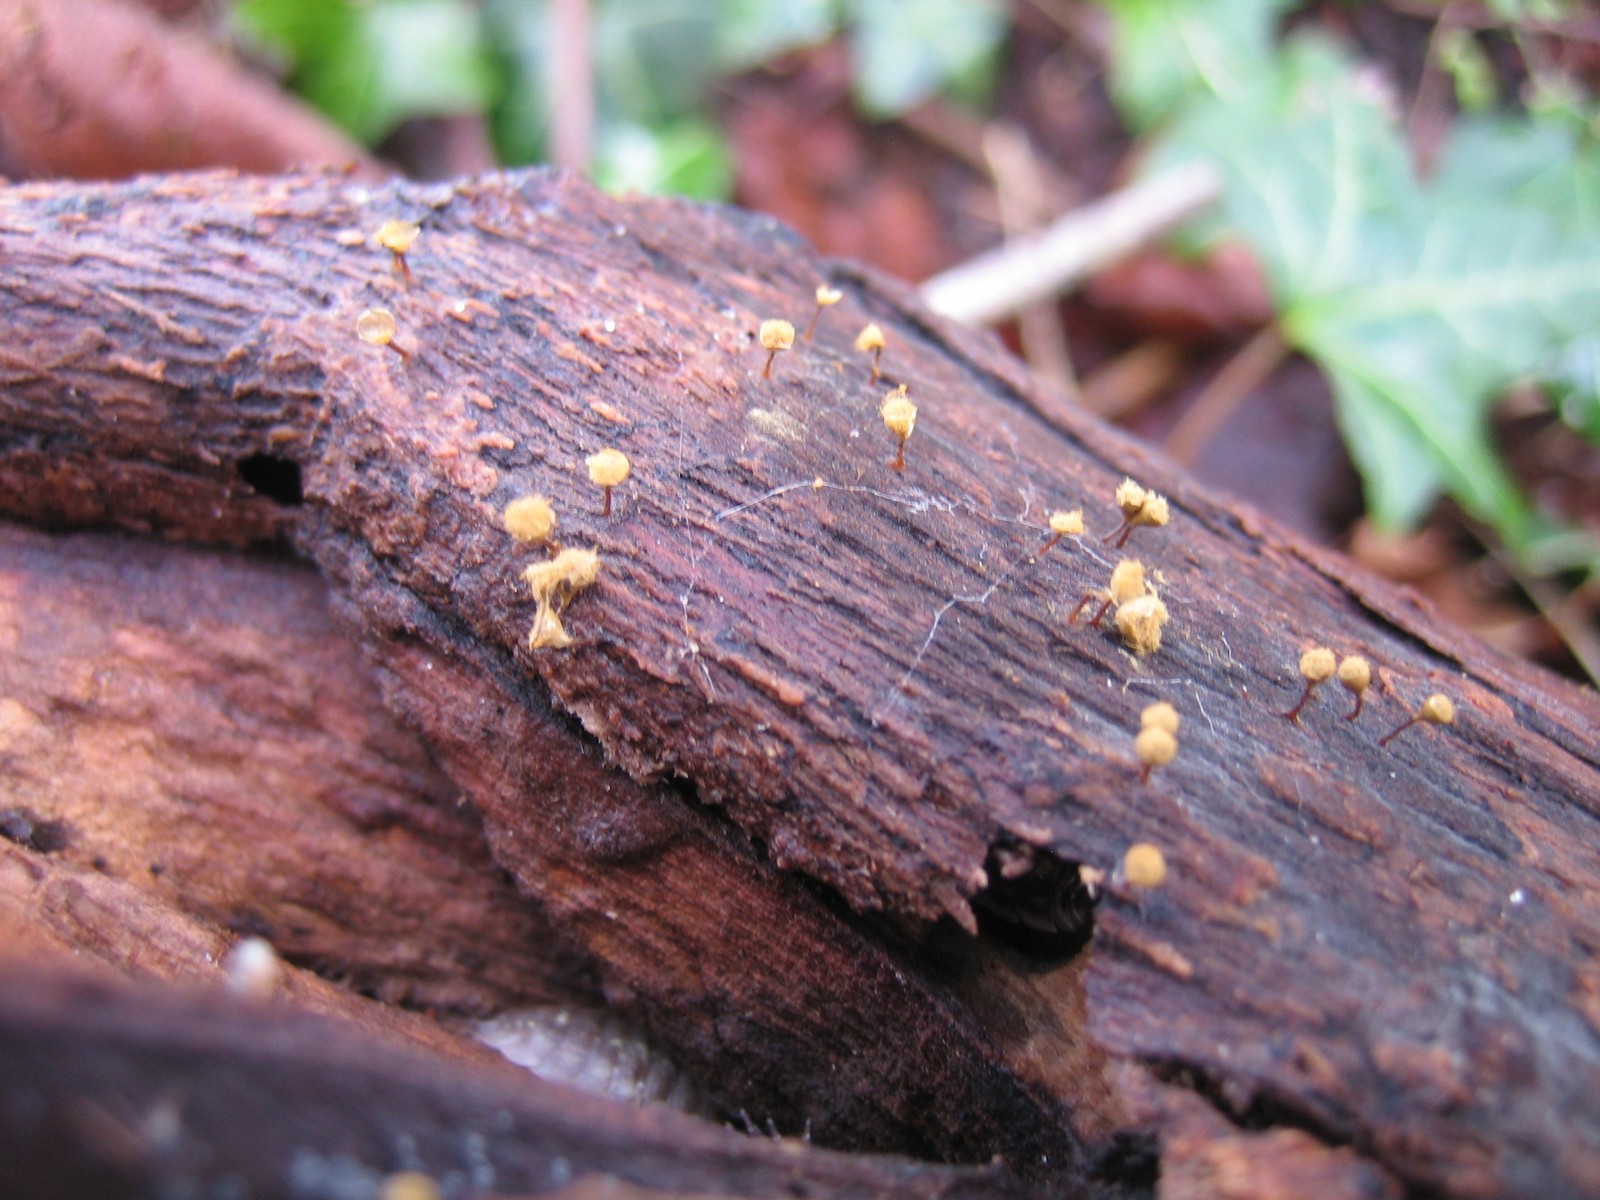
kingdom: Protozoa
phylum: Mycetozoa
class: Myxomycetes
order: Trichiales
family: Trichiaceae
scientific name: Trichiaceae
